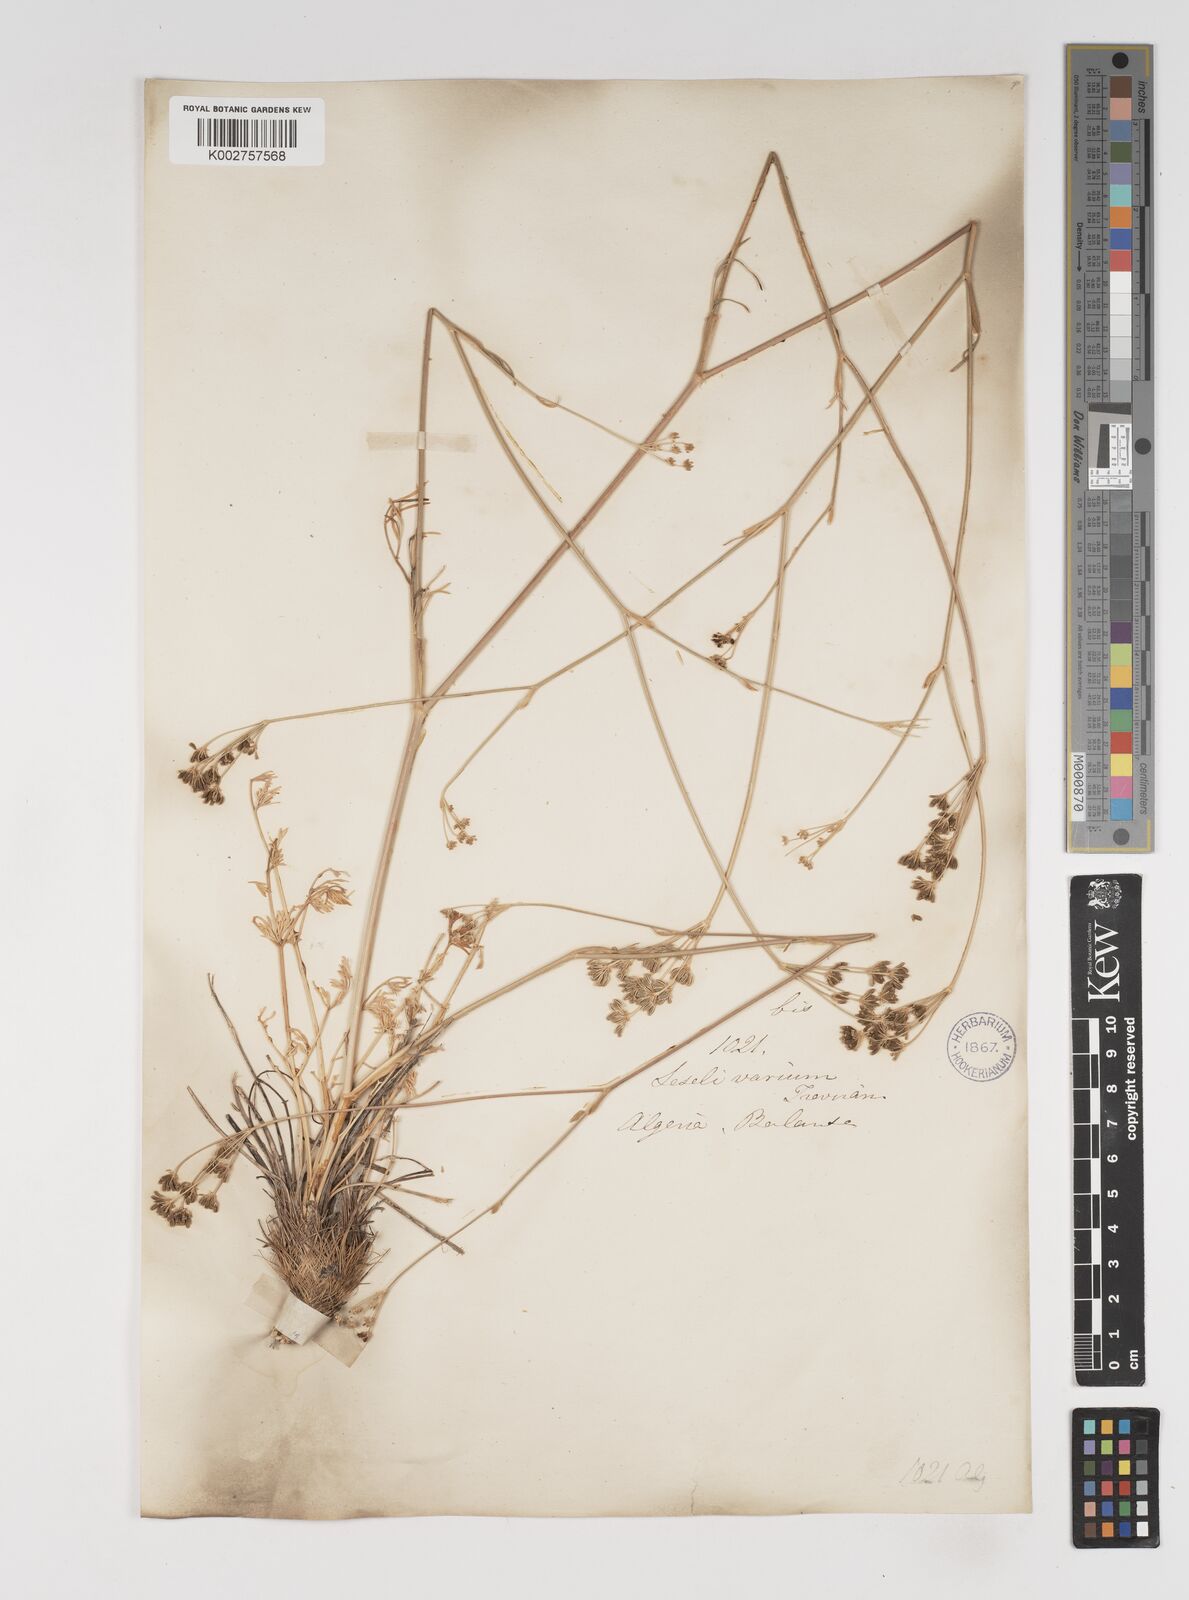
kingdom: Plantae
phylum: Tracheophyta
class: Magnoliopsida
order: Apiales
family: Apiaceae
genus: Seseli
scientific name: Seseli pallasii
